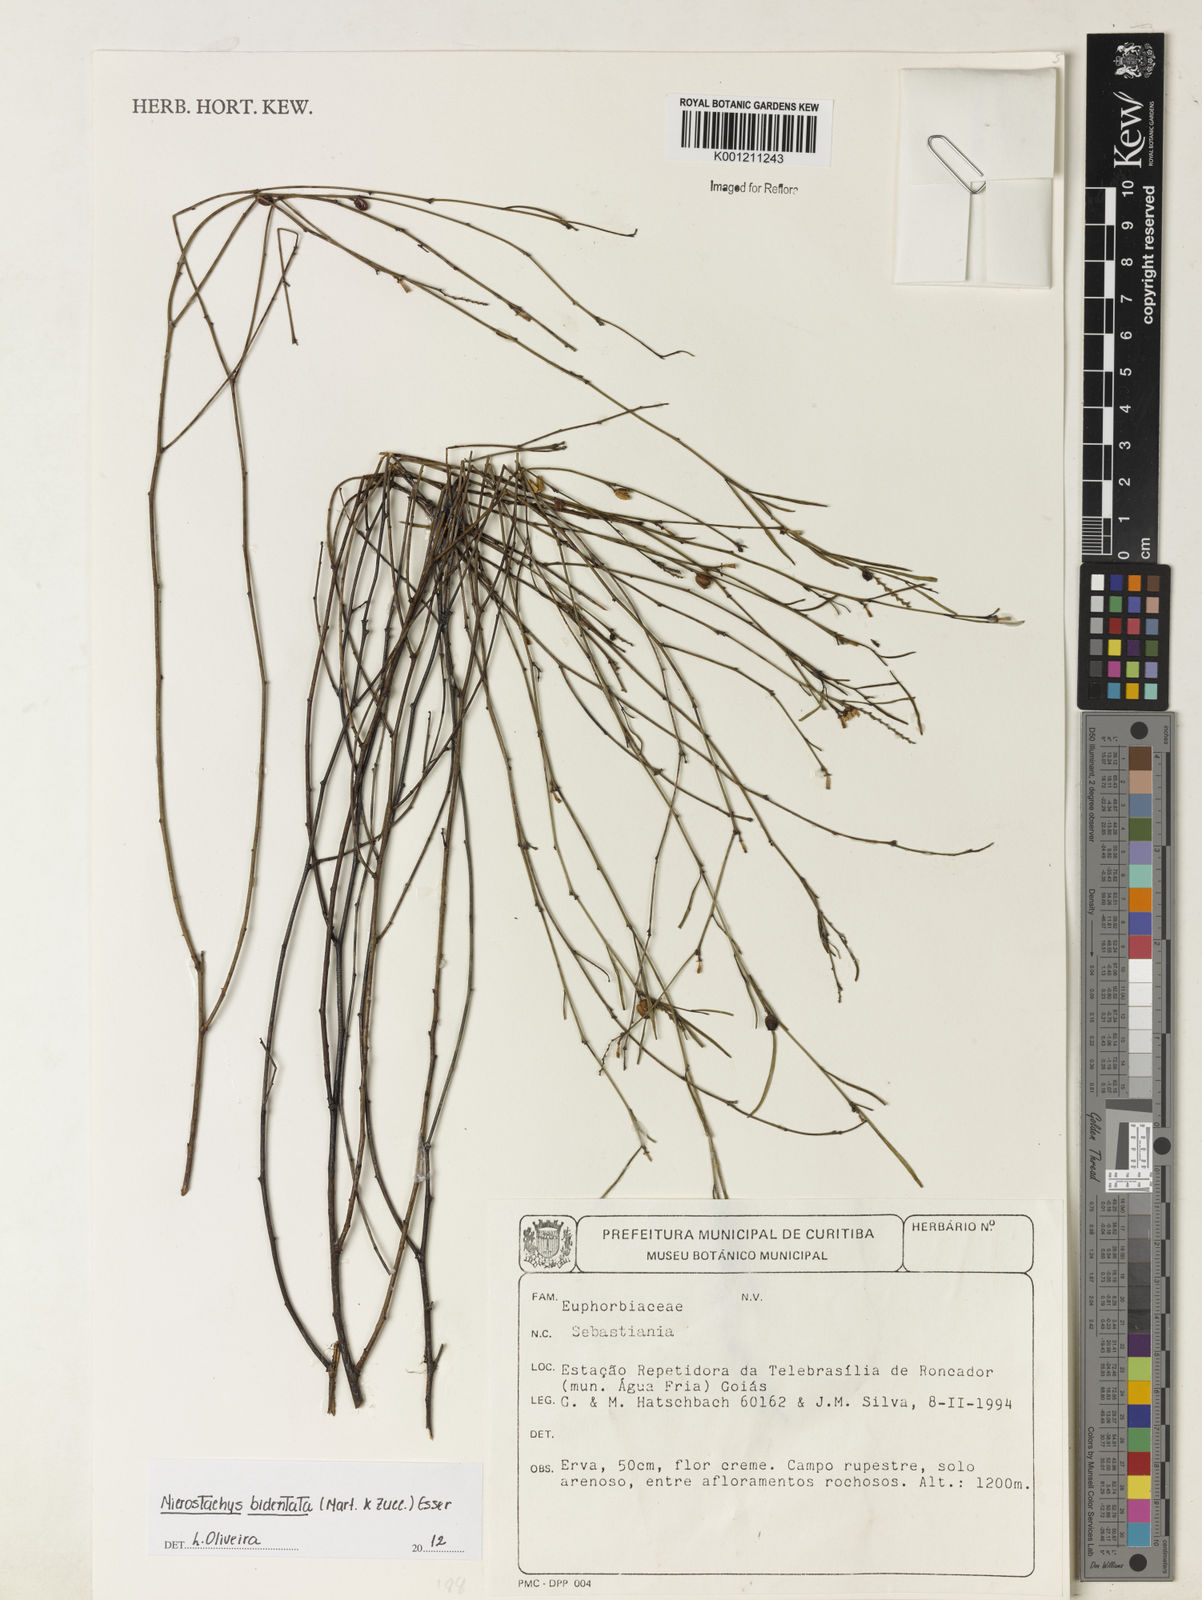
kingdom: Plantae
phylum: Tracheophyta
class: Magnoliopsida
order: Malpighiales
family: Euphorbiaceae
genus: Microstachys
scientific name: Microstachys bidentata
